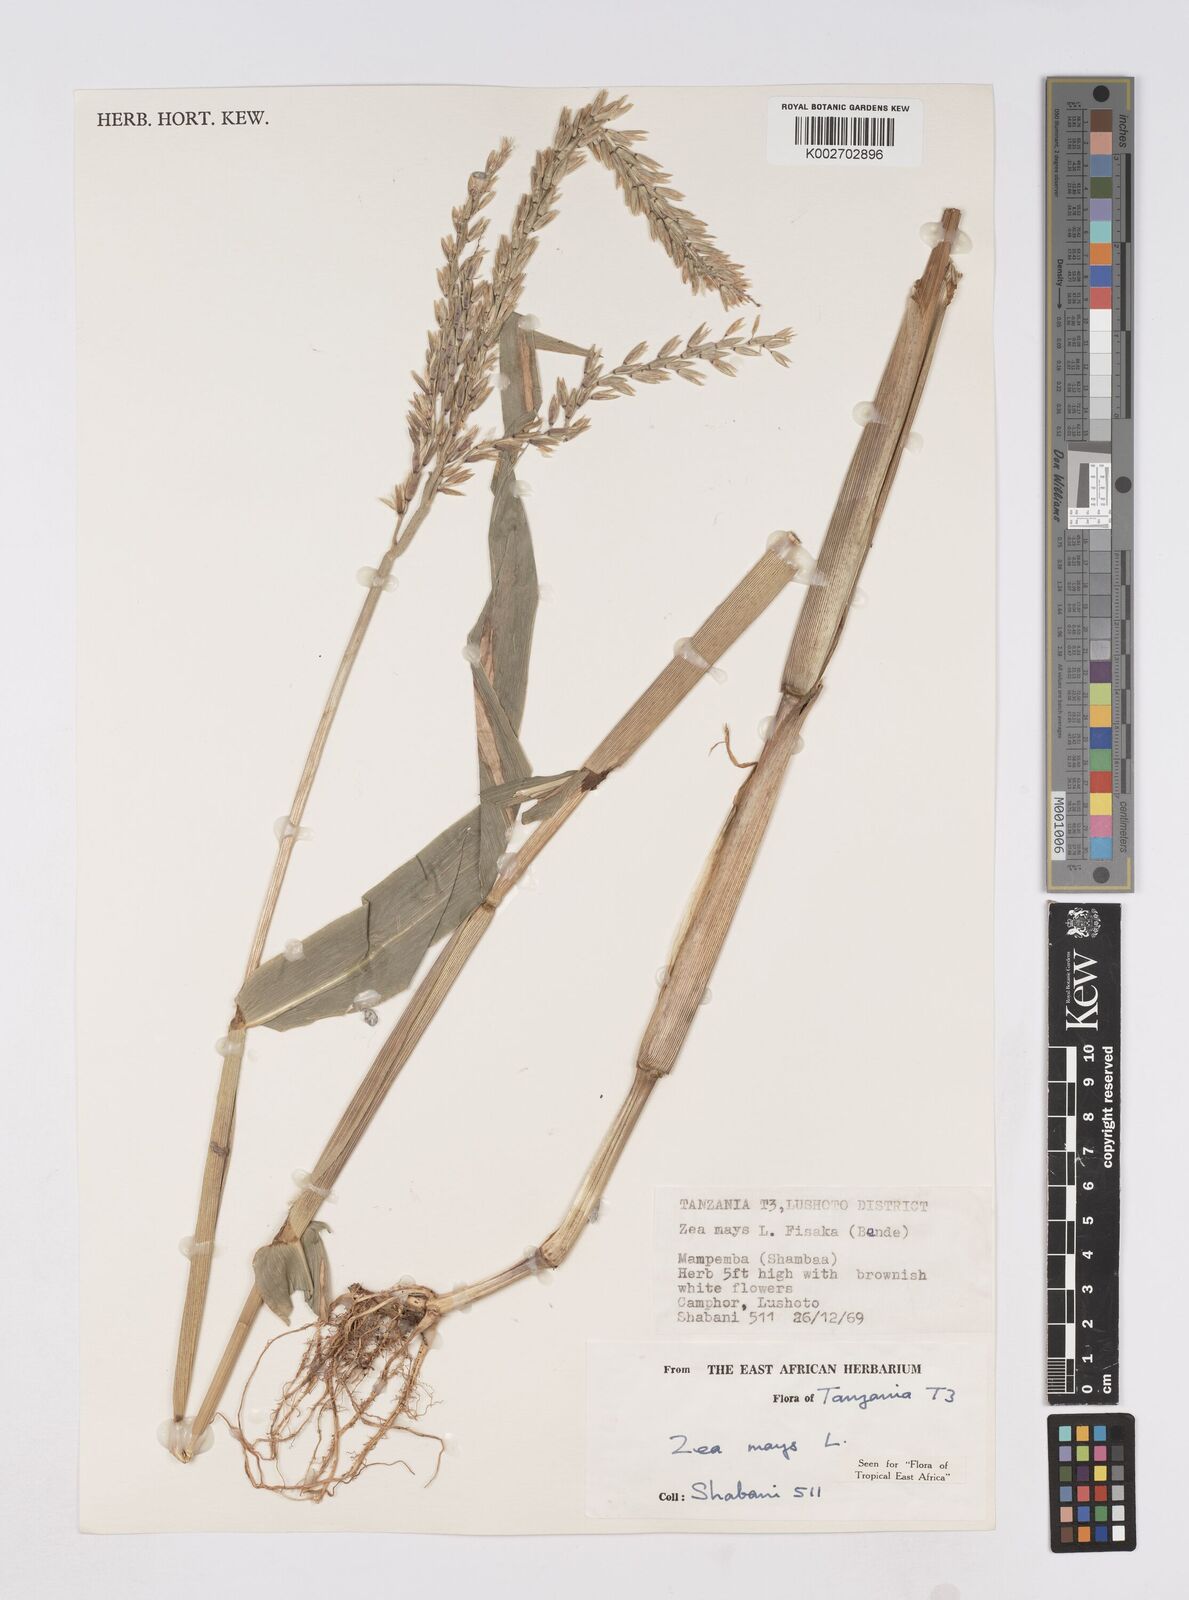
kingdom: Plantae
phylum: Tracheophyta
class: Liliopsida
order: Poales
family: Poaceae
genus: Zea
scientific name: Zea mays
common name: Maize
